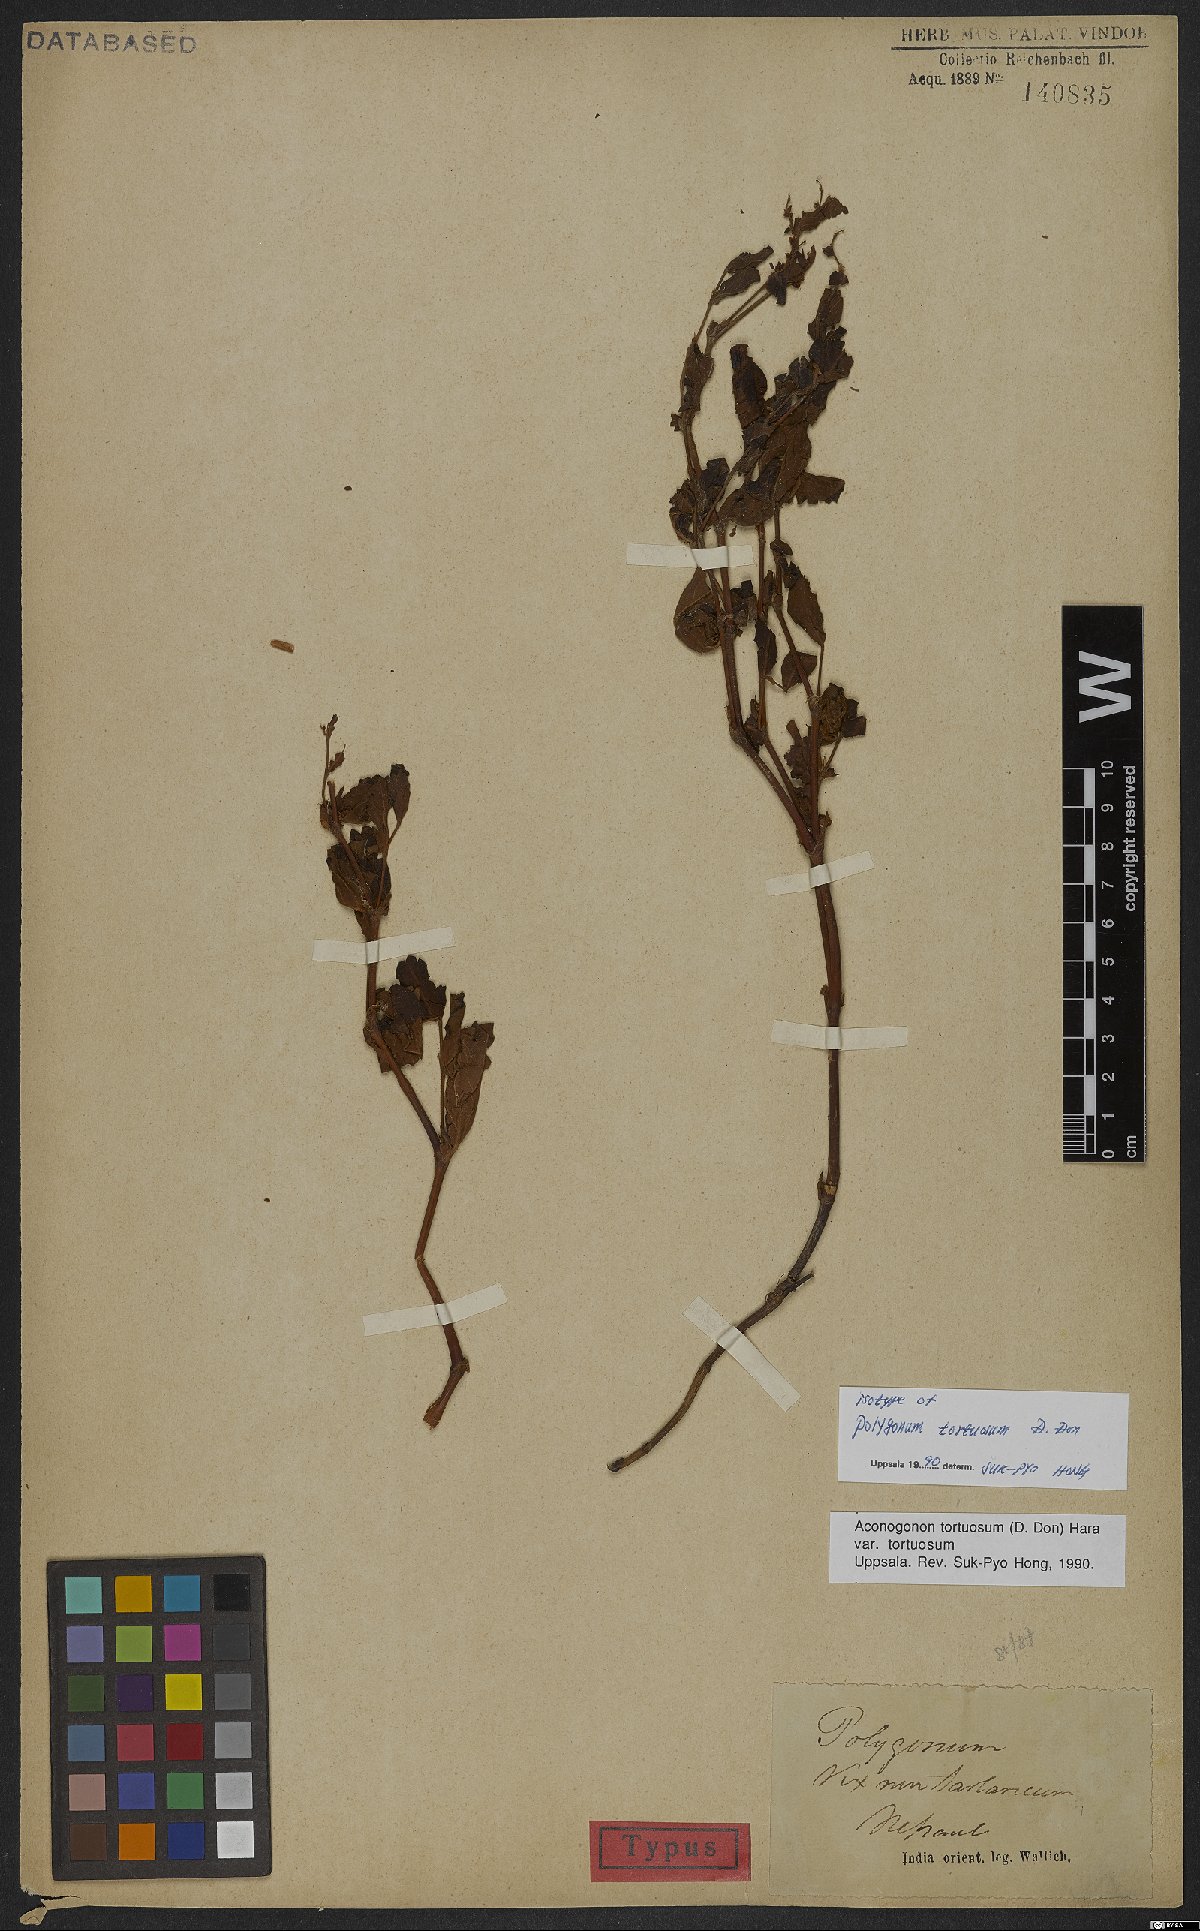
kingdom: Plantae
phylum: Tracheophyta
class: Magnoliopsida
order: Caryophyllales
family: Polygonaceae
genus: Koenigia
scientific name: Koenigia tortuosa
